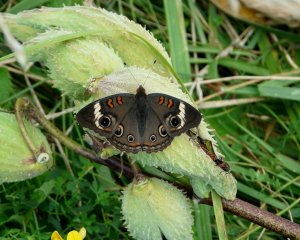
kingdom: Animalia
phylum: Arthropoda
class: Insecta
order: Lepidoptera
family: Nymphalidae
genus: Junonia
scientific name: Junonia coenia
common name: Common Buckeye
